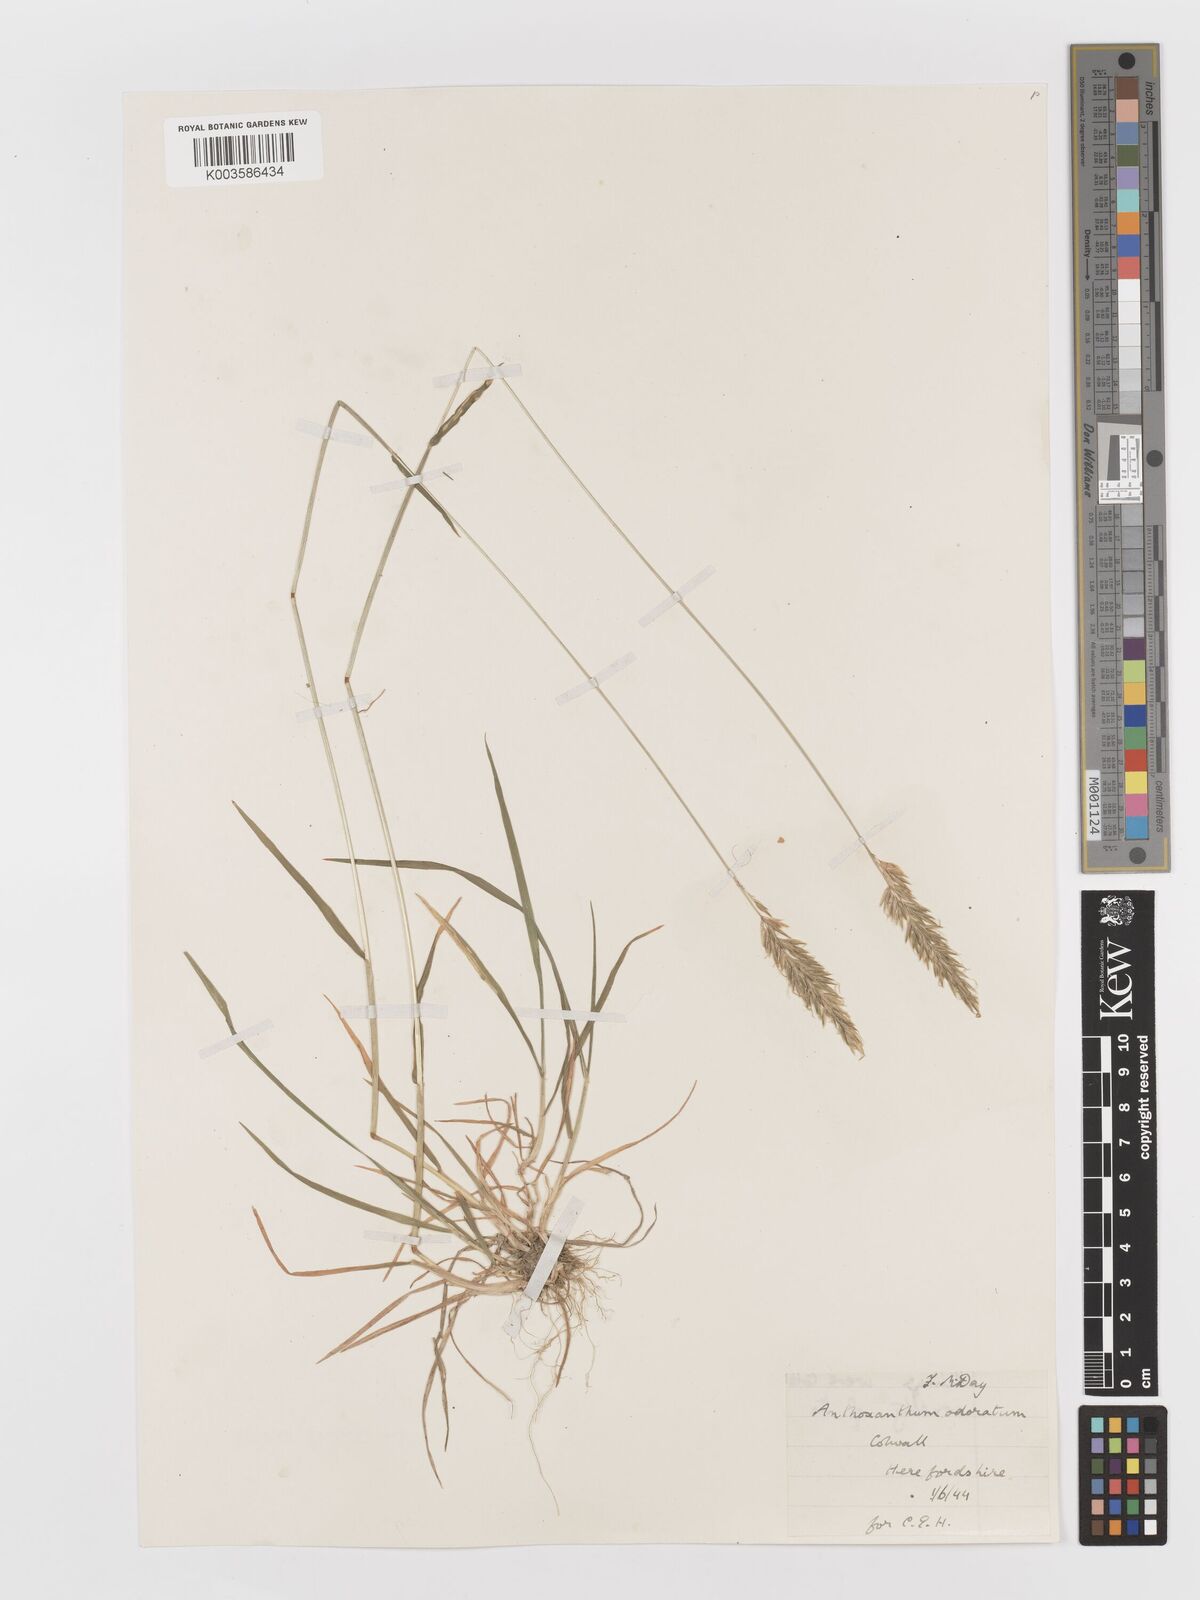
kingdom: Plantae
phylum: Tracheophyta
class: Liliopsida
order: Poales
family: Poaceae
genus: Anthoxanthum
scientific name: Anthoxanthum odoratum
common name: Sweet vernalgrass
